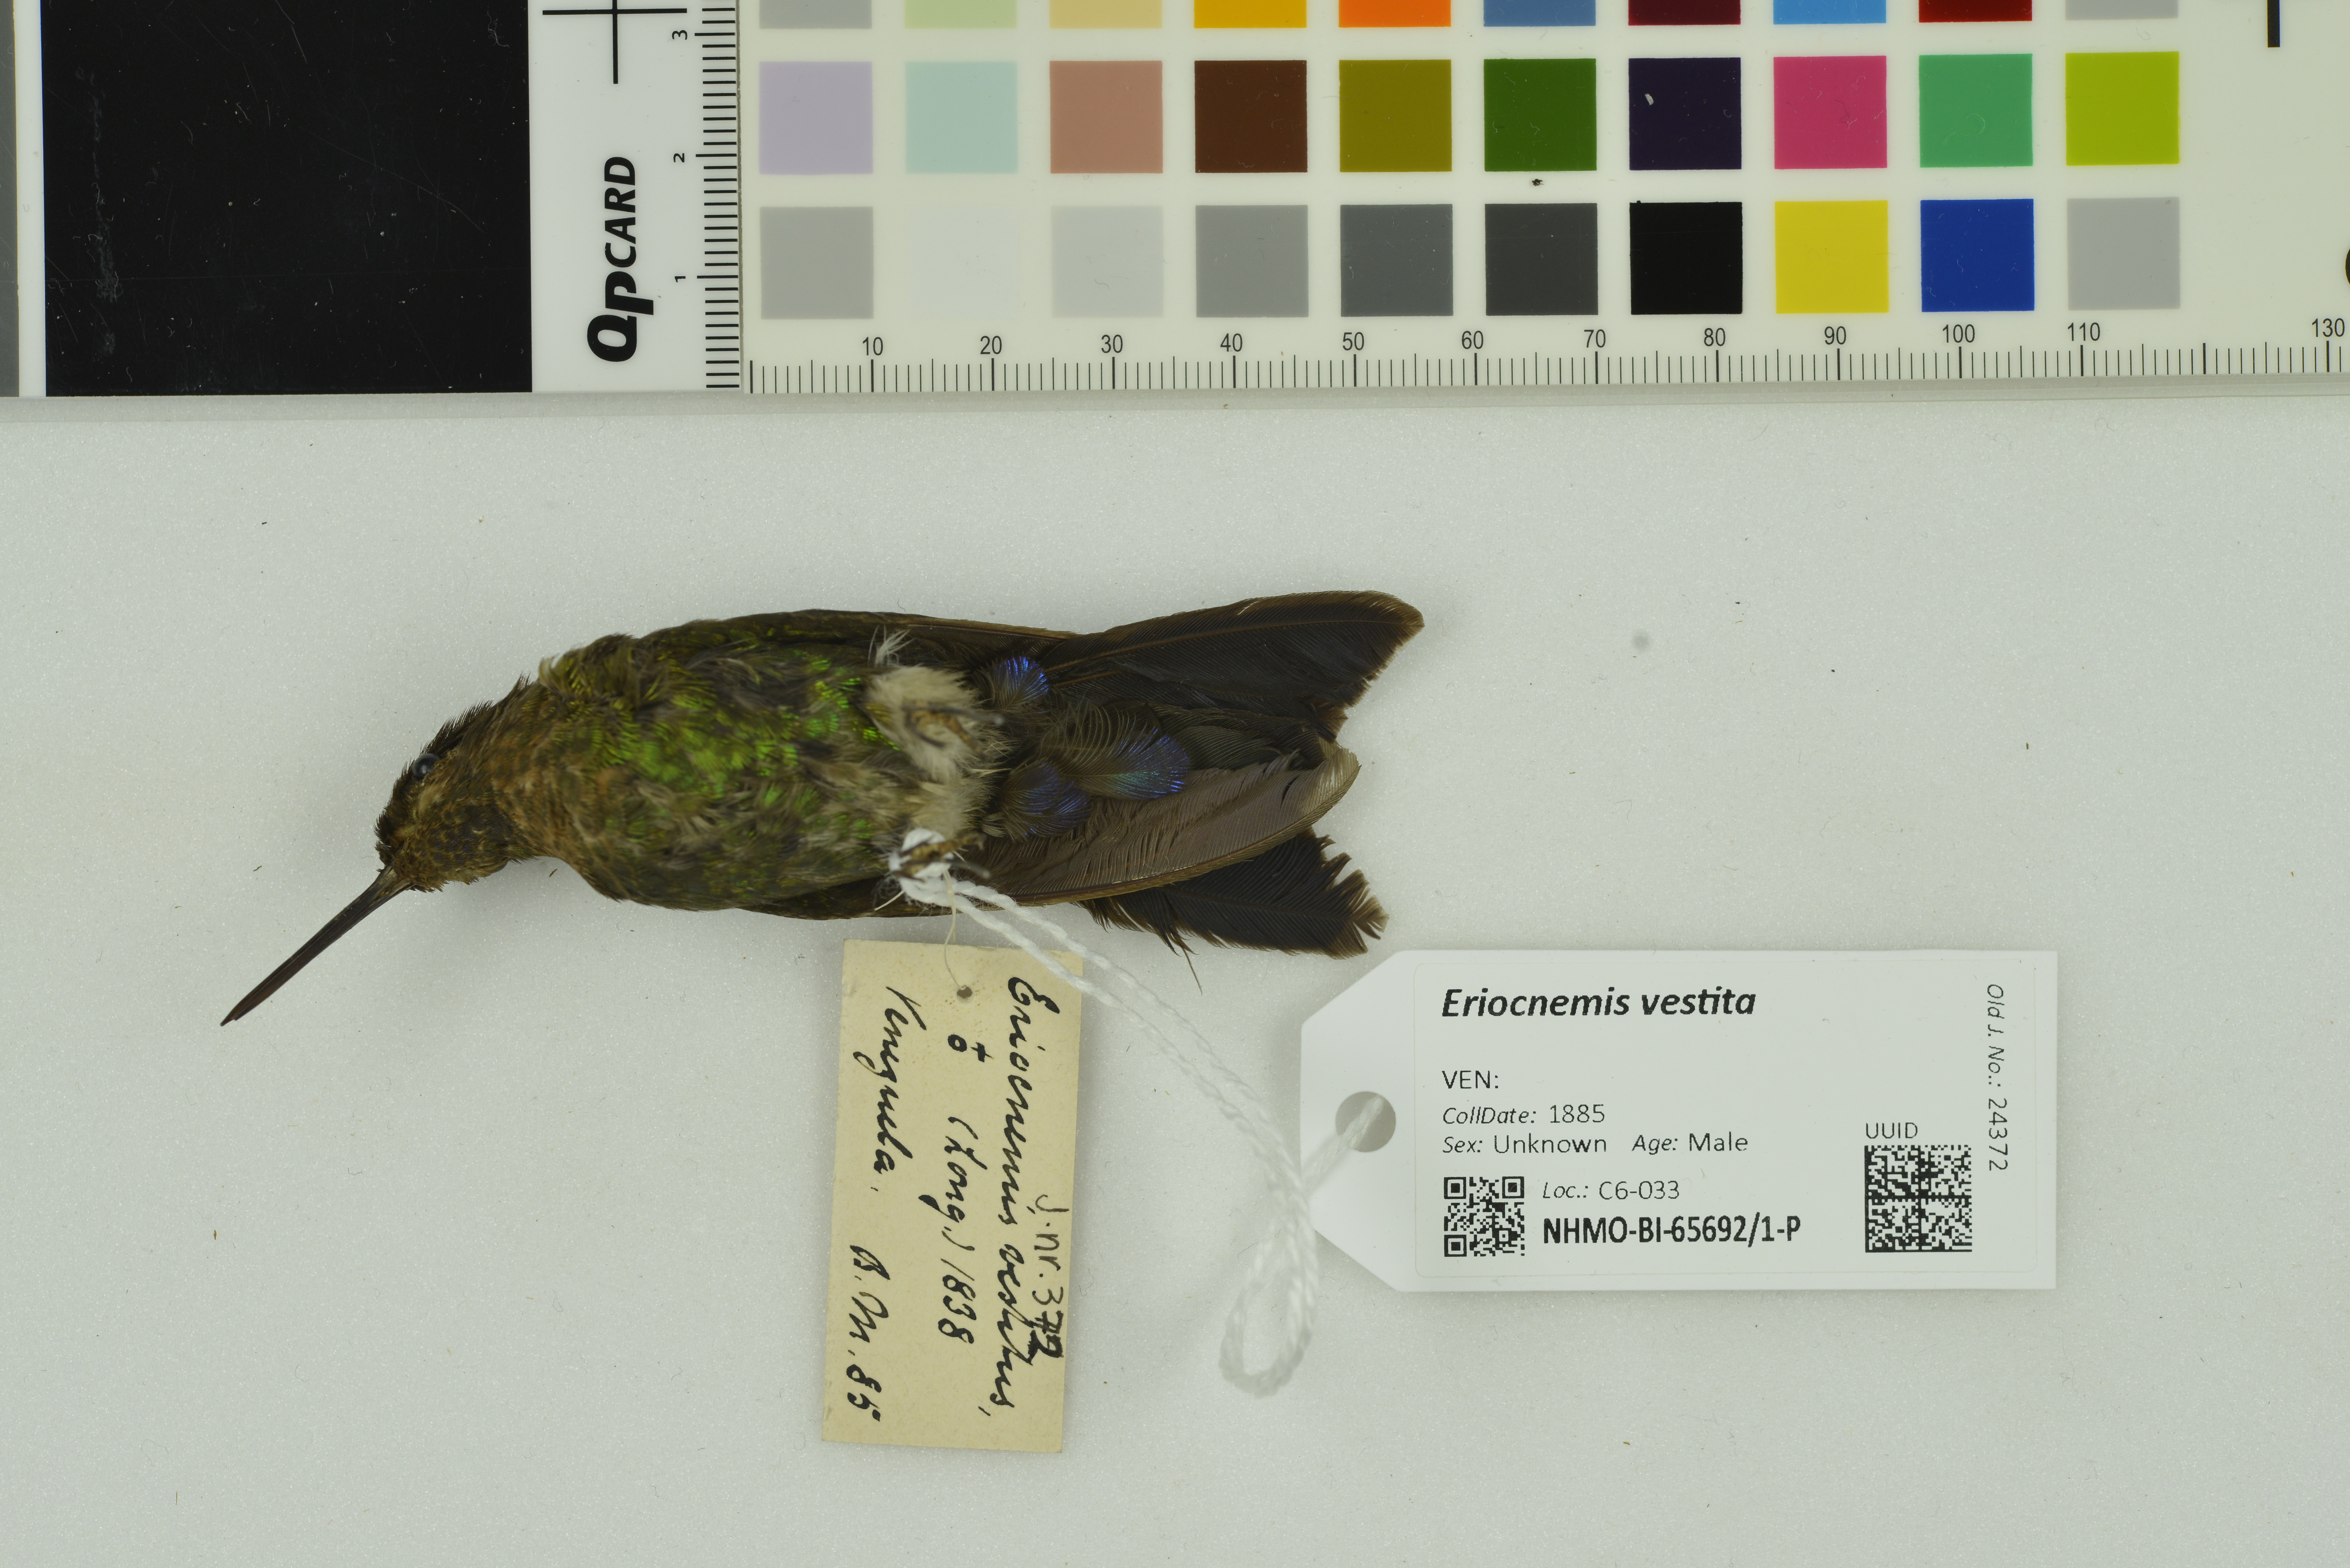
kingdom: Animalia
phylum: Chordata
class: Aves
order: Apodiformes
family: Trochilidae
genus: Eriocnemis
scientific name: Eriocnemis vestita
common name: Glowing puffleg
